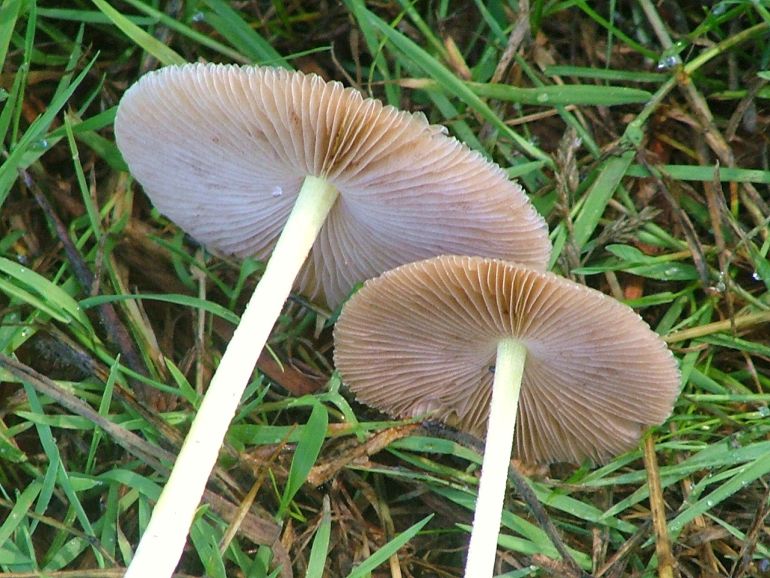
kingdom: Fungi
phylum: Basidiomycota
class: Agaricomycetes
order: Agaricales
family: Bolbitiaceae
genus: Bolbitius
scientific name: Bolbitius titubans
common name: almindelig gulhat
